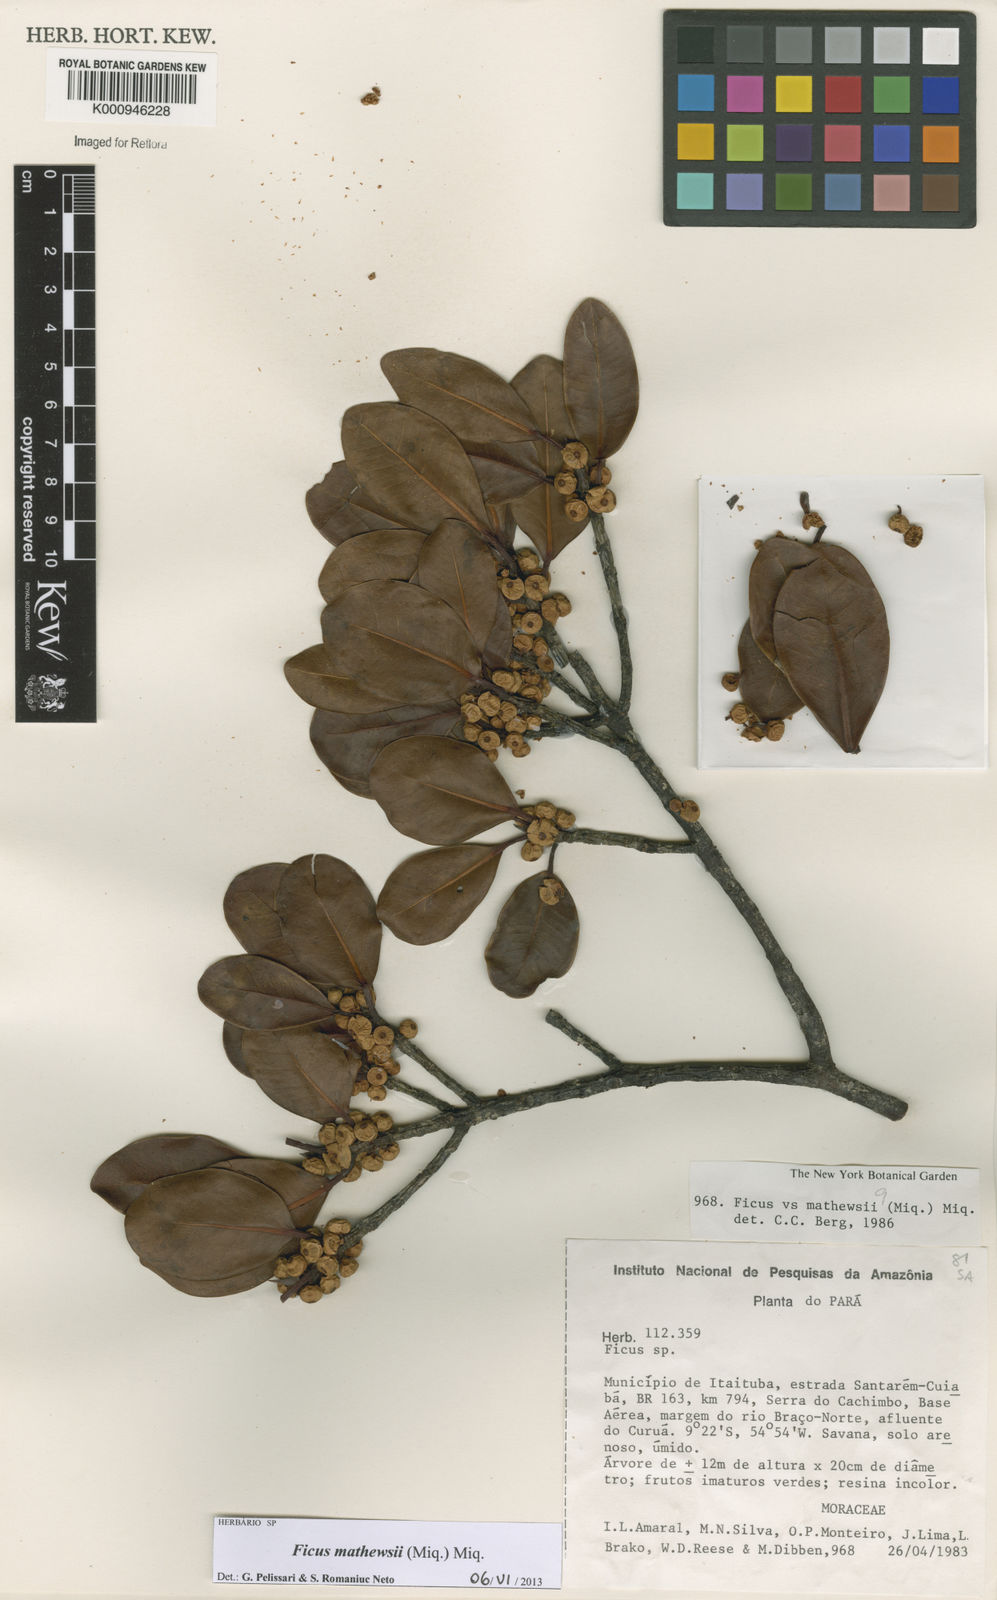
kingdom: Plantae
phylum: Tracheophyta
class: Magnoliopsida
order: Rosales
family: Moraceae
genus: Ficus
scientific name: Ficus mathewsii
